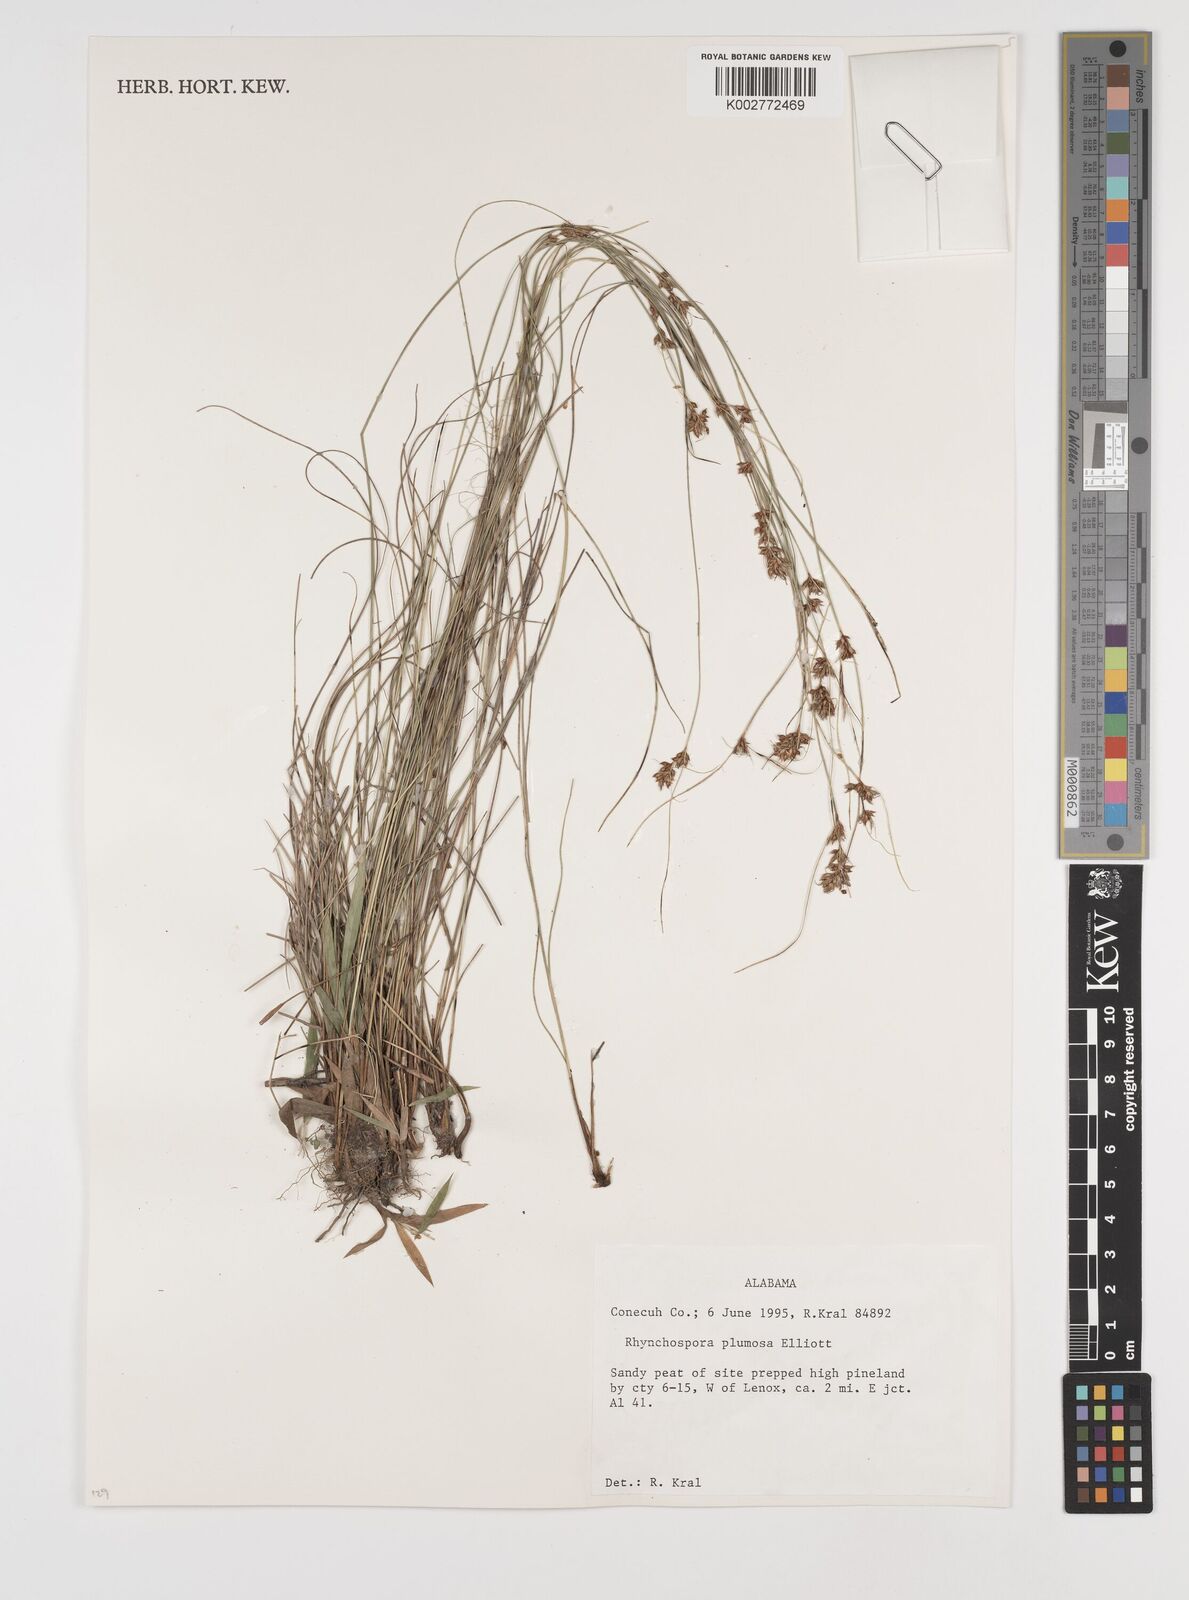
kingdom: Plantae
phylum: Tracheophyta
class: Liliopsida
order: Poales
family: Cyperaceae
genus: Rhynchospora
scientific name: Rhynchospora plumosa
